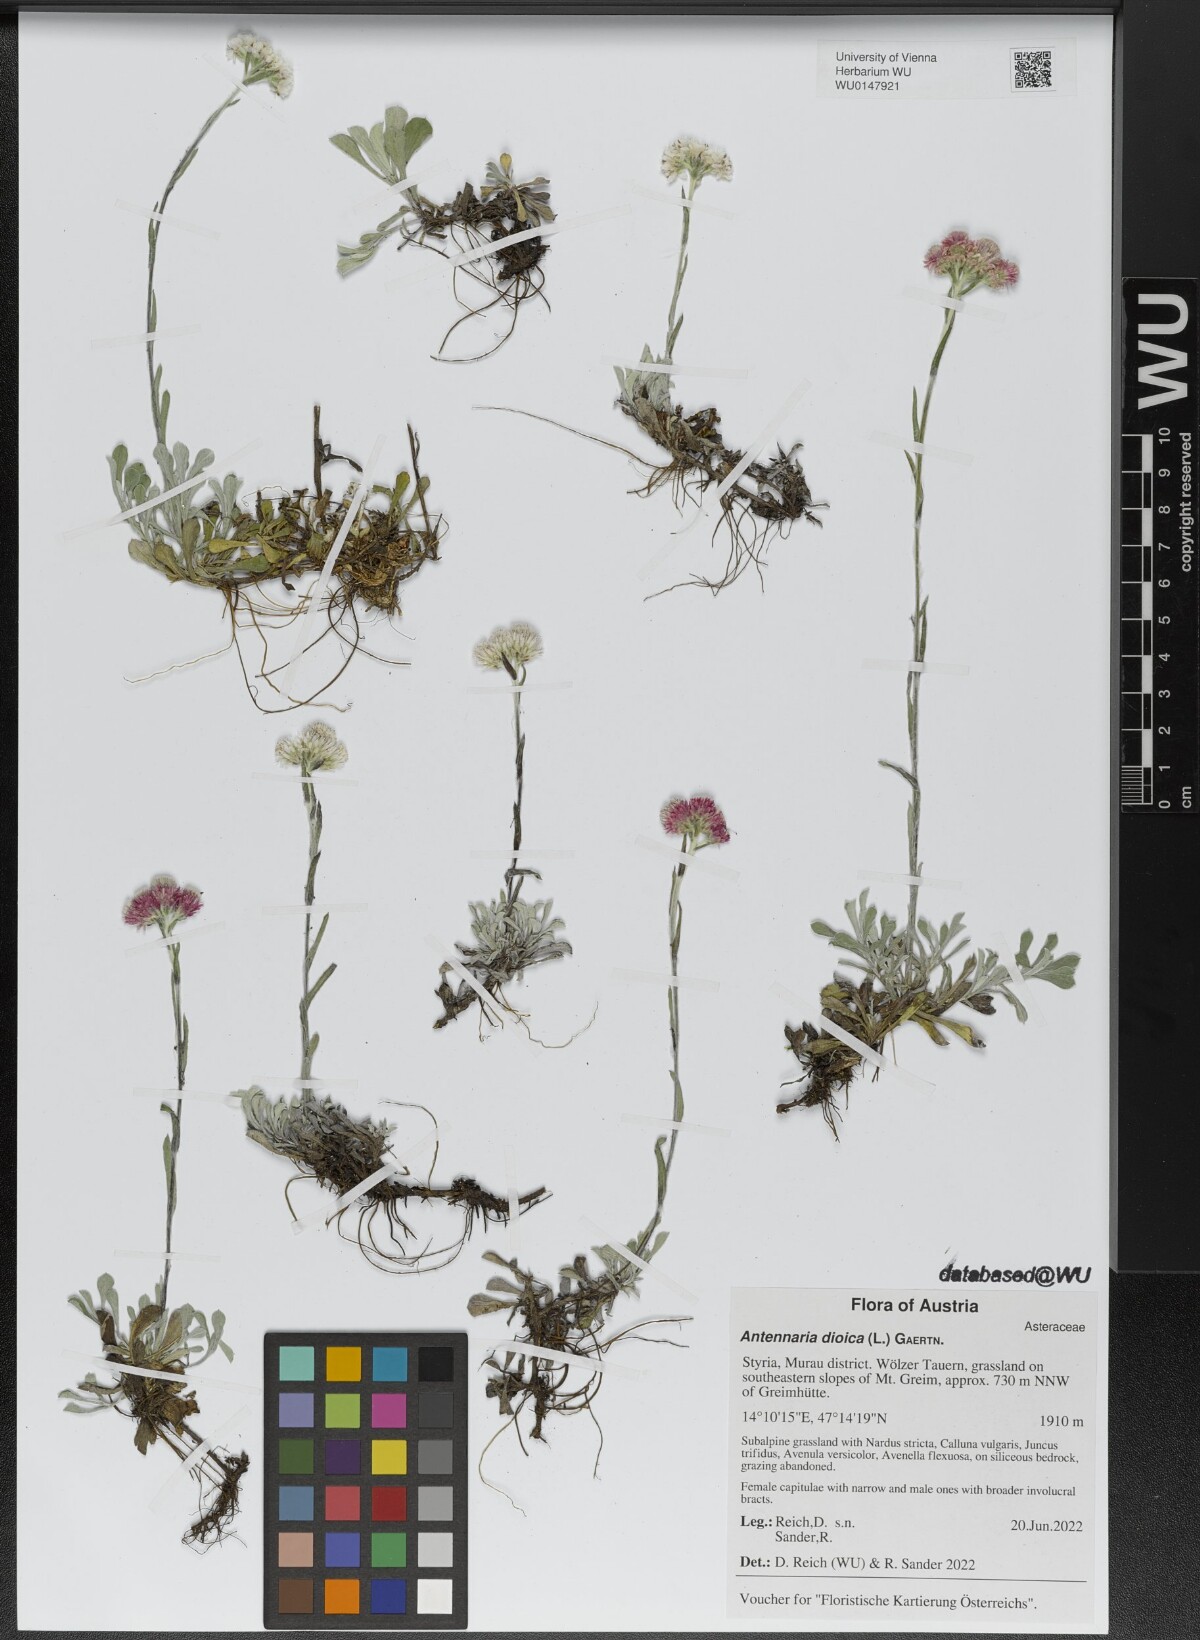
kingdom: Plantae
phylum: Tracheophyta
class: Magnoliopsida
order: Asterales
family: Asteraceae
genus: Antennaria
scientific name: Antennaria dioica
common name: Mountain everlasting
